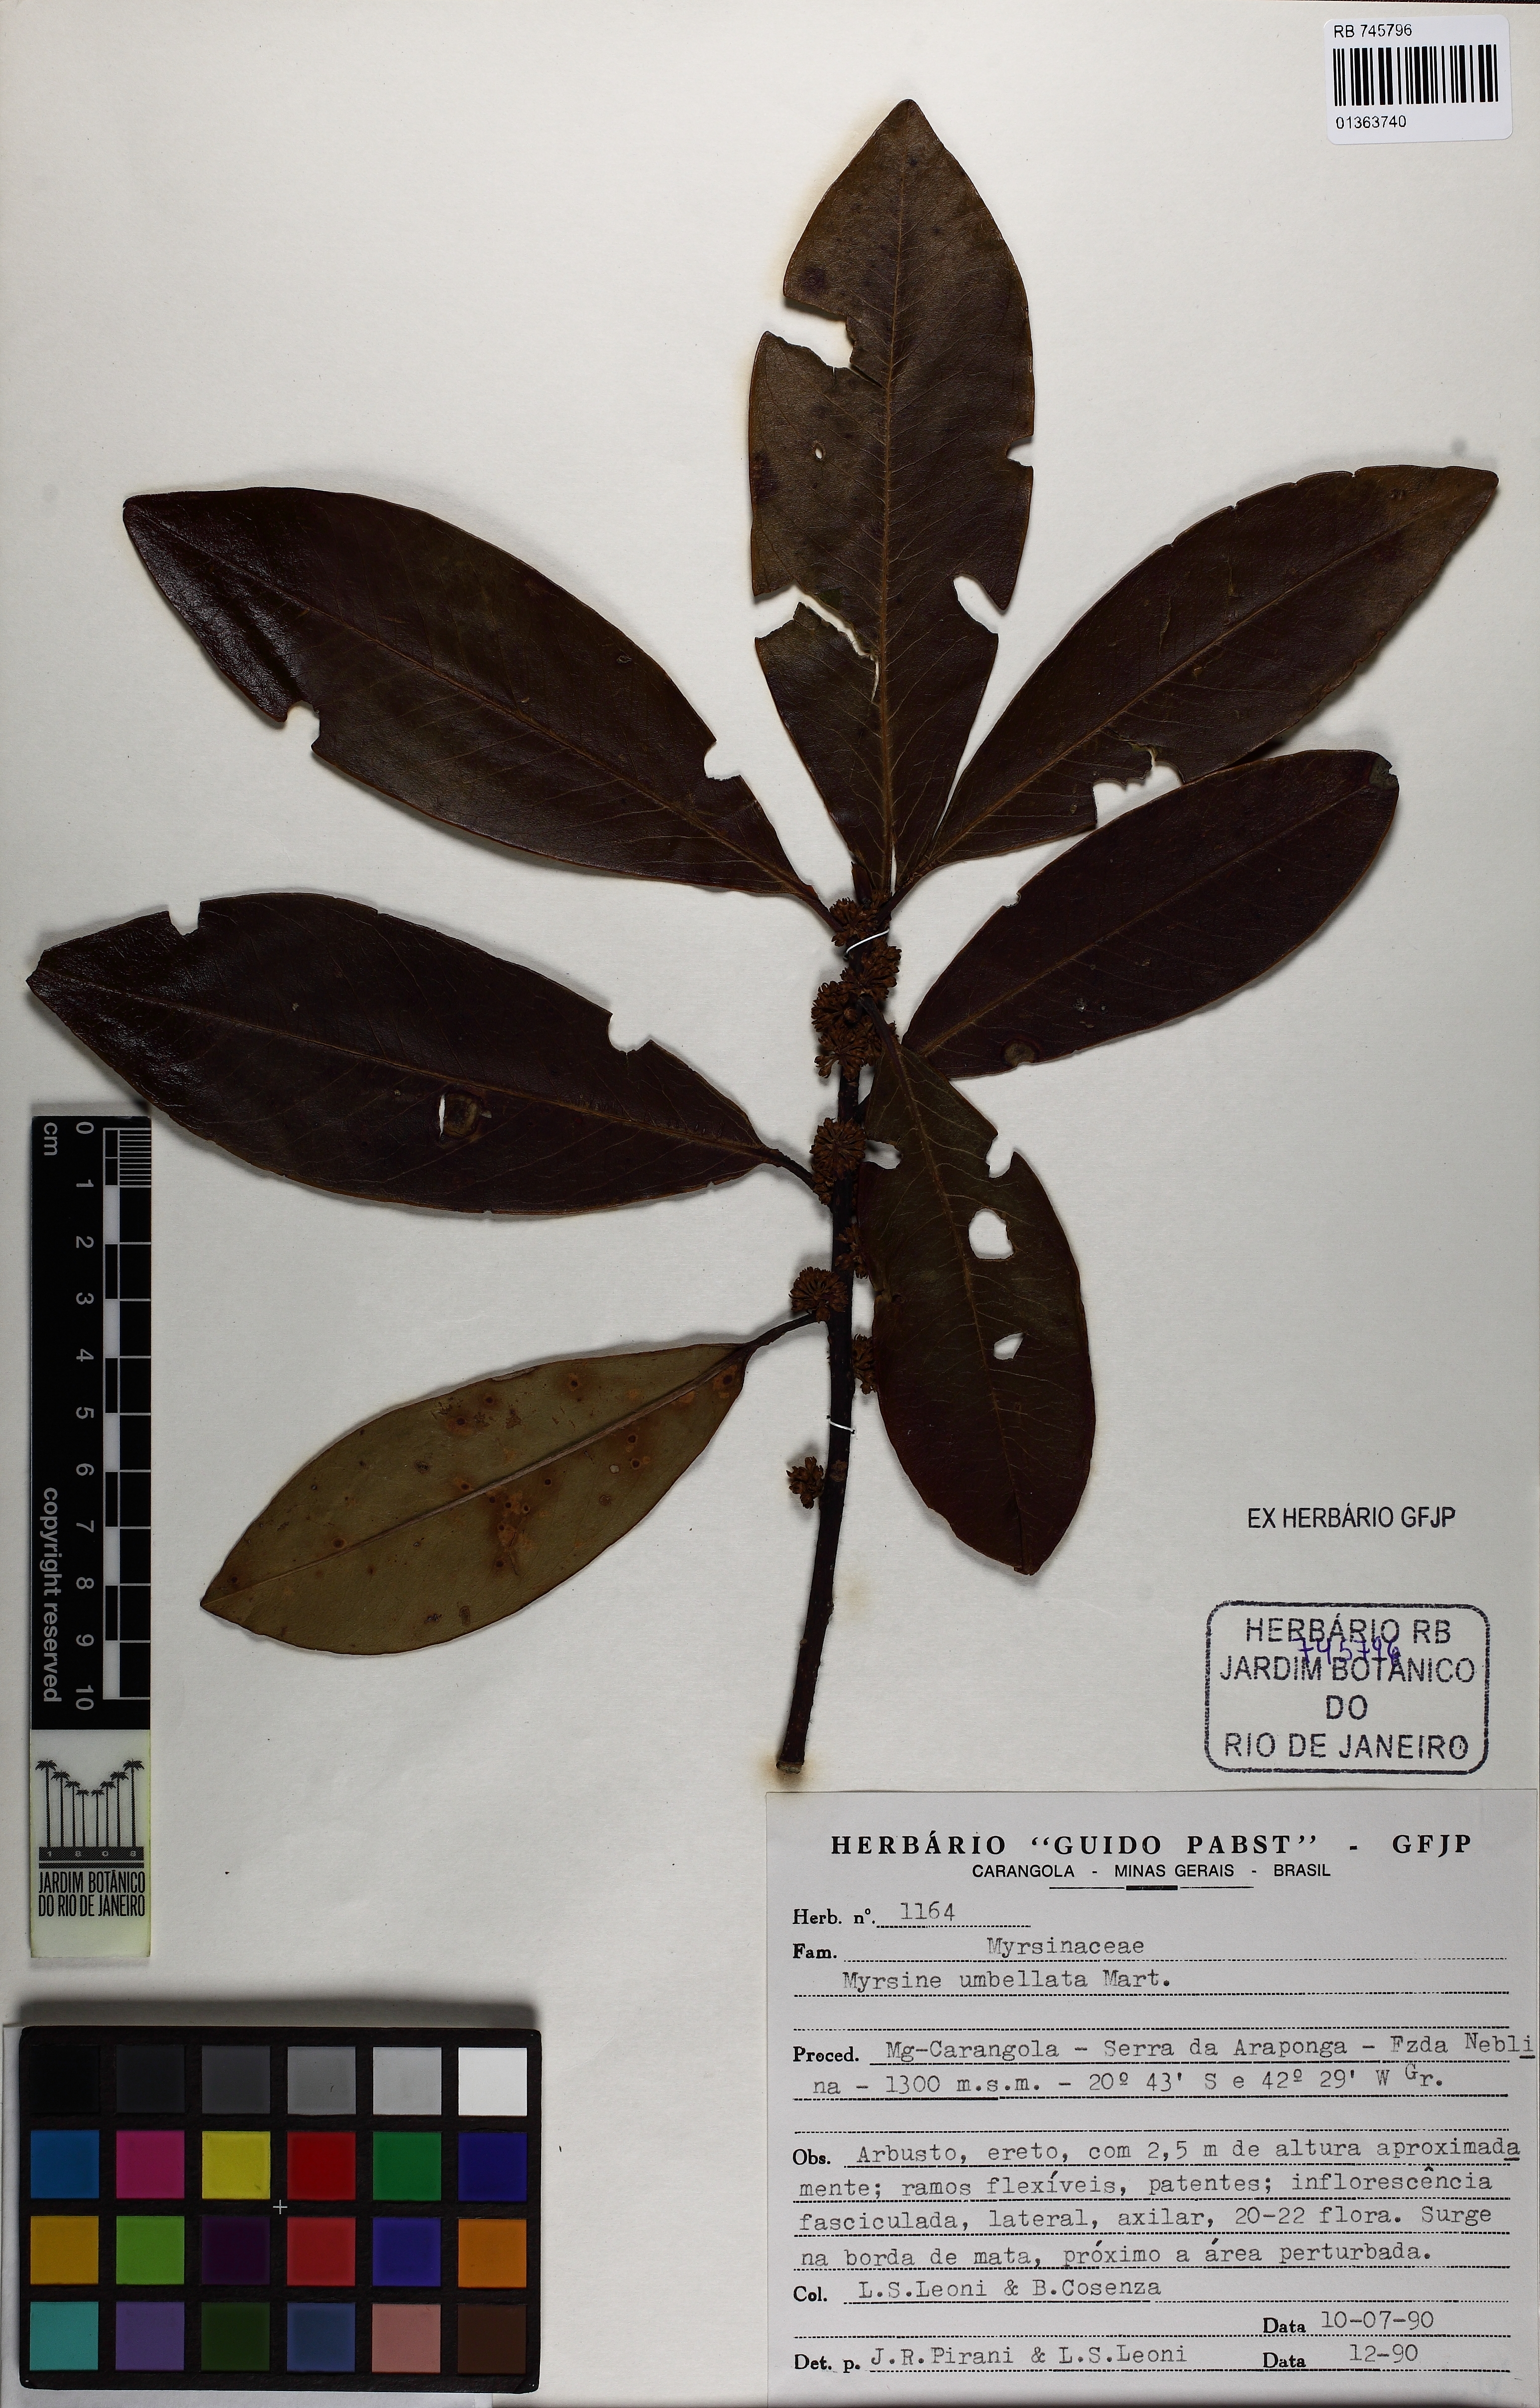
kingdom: Plantae
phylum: Tracheophyta
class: Magnoliopsida
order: Ericales
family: Primulaceae
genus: Myrsine
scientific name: Myrsine umbellata
